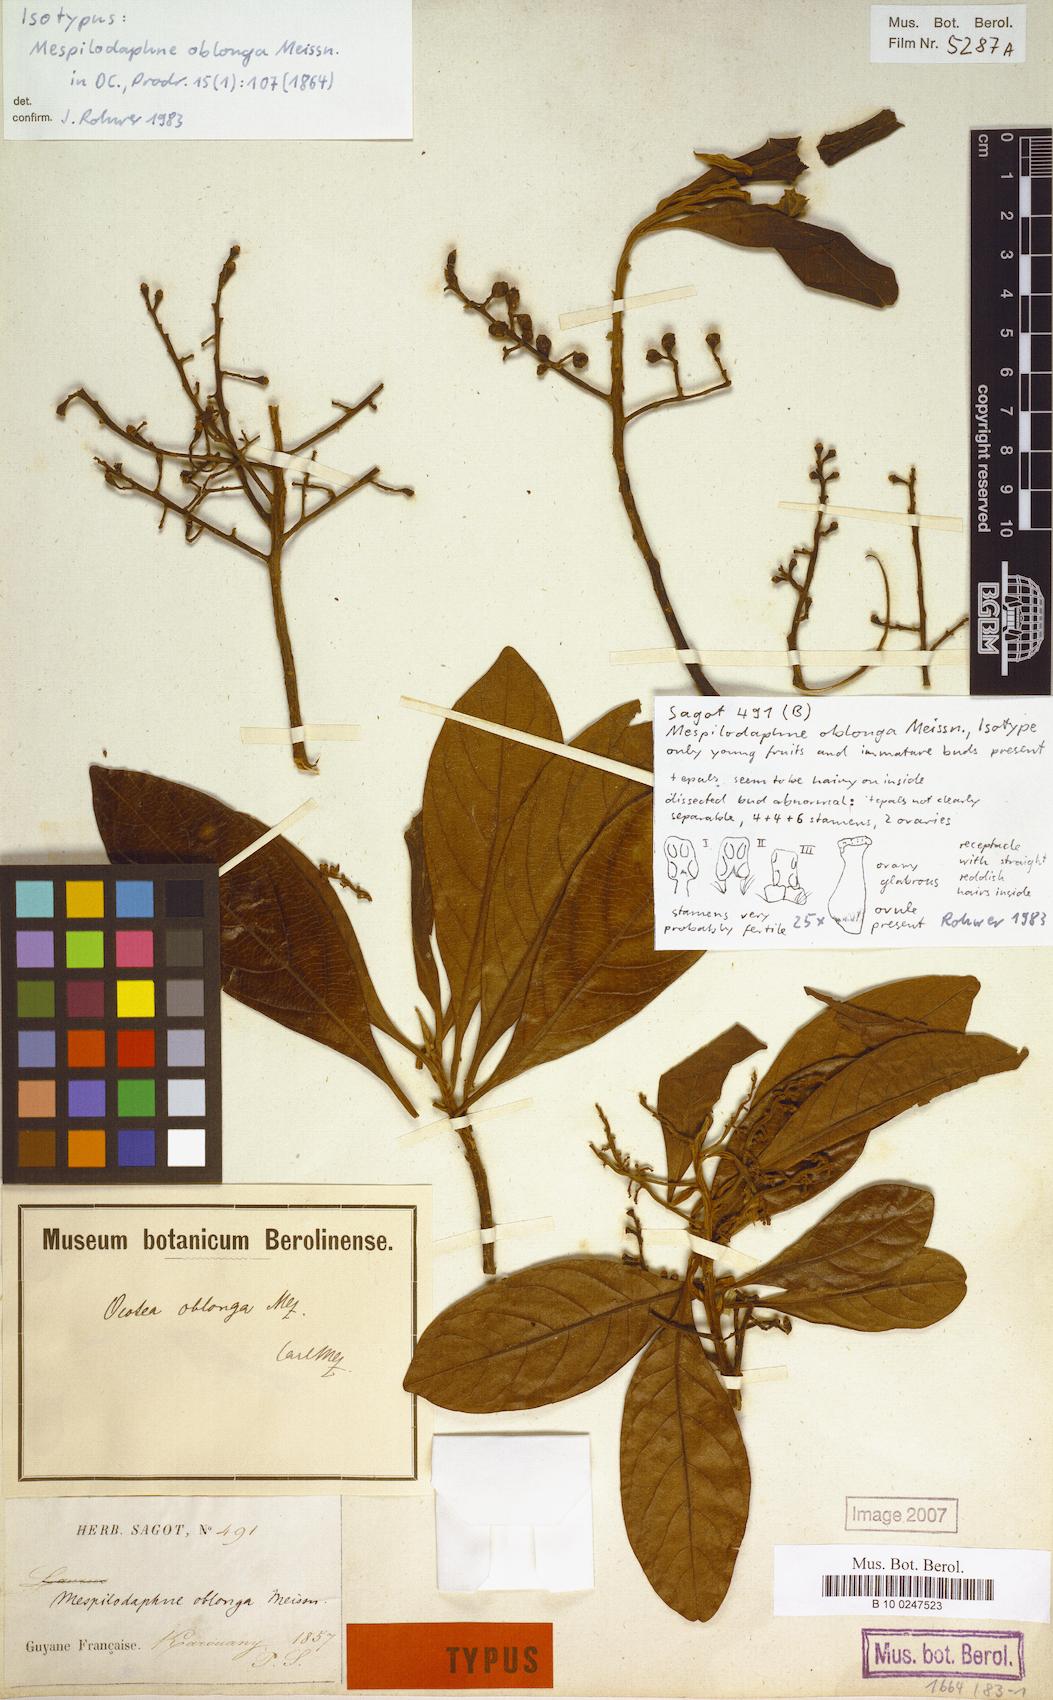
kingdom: Plantae
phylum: Tracheophyta
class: Magnoliopsida
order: Laurales
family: Lauraceae
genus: Ocotea
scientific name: Ocotea oblonga
